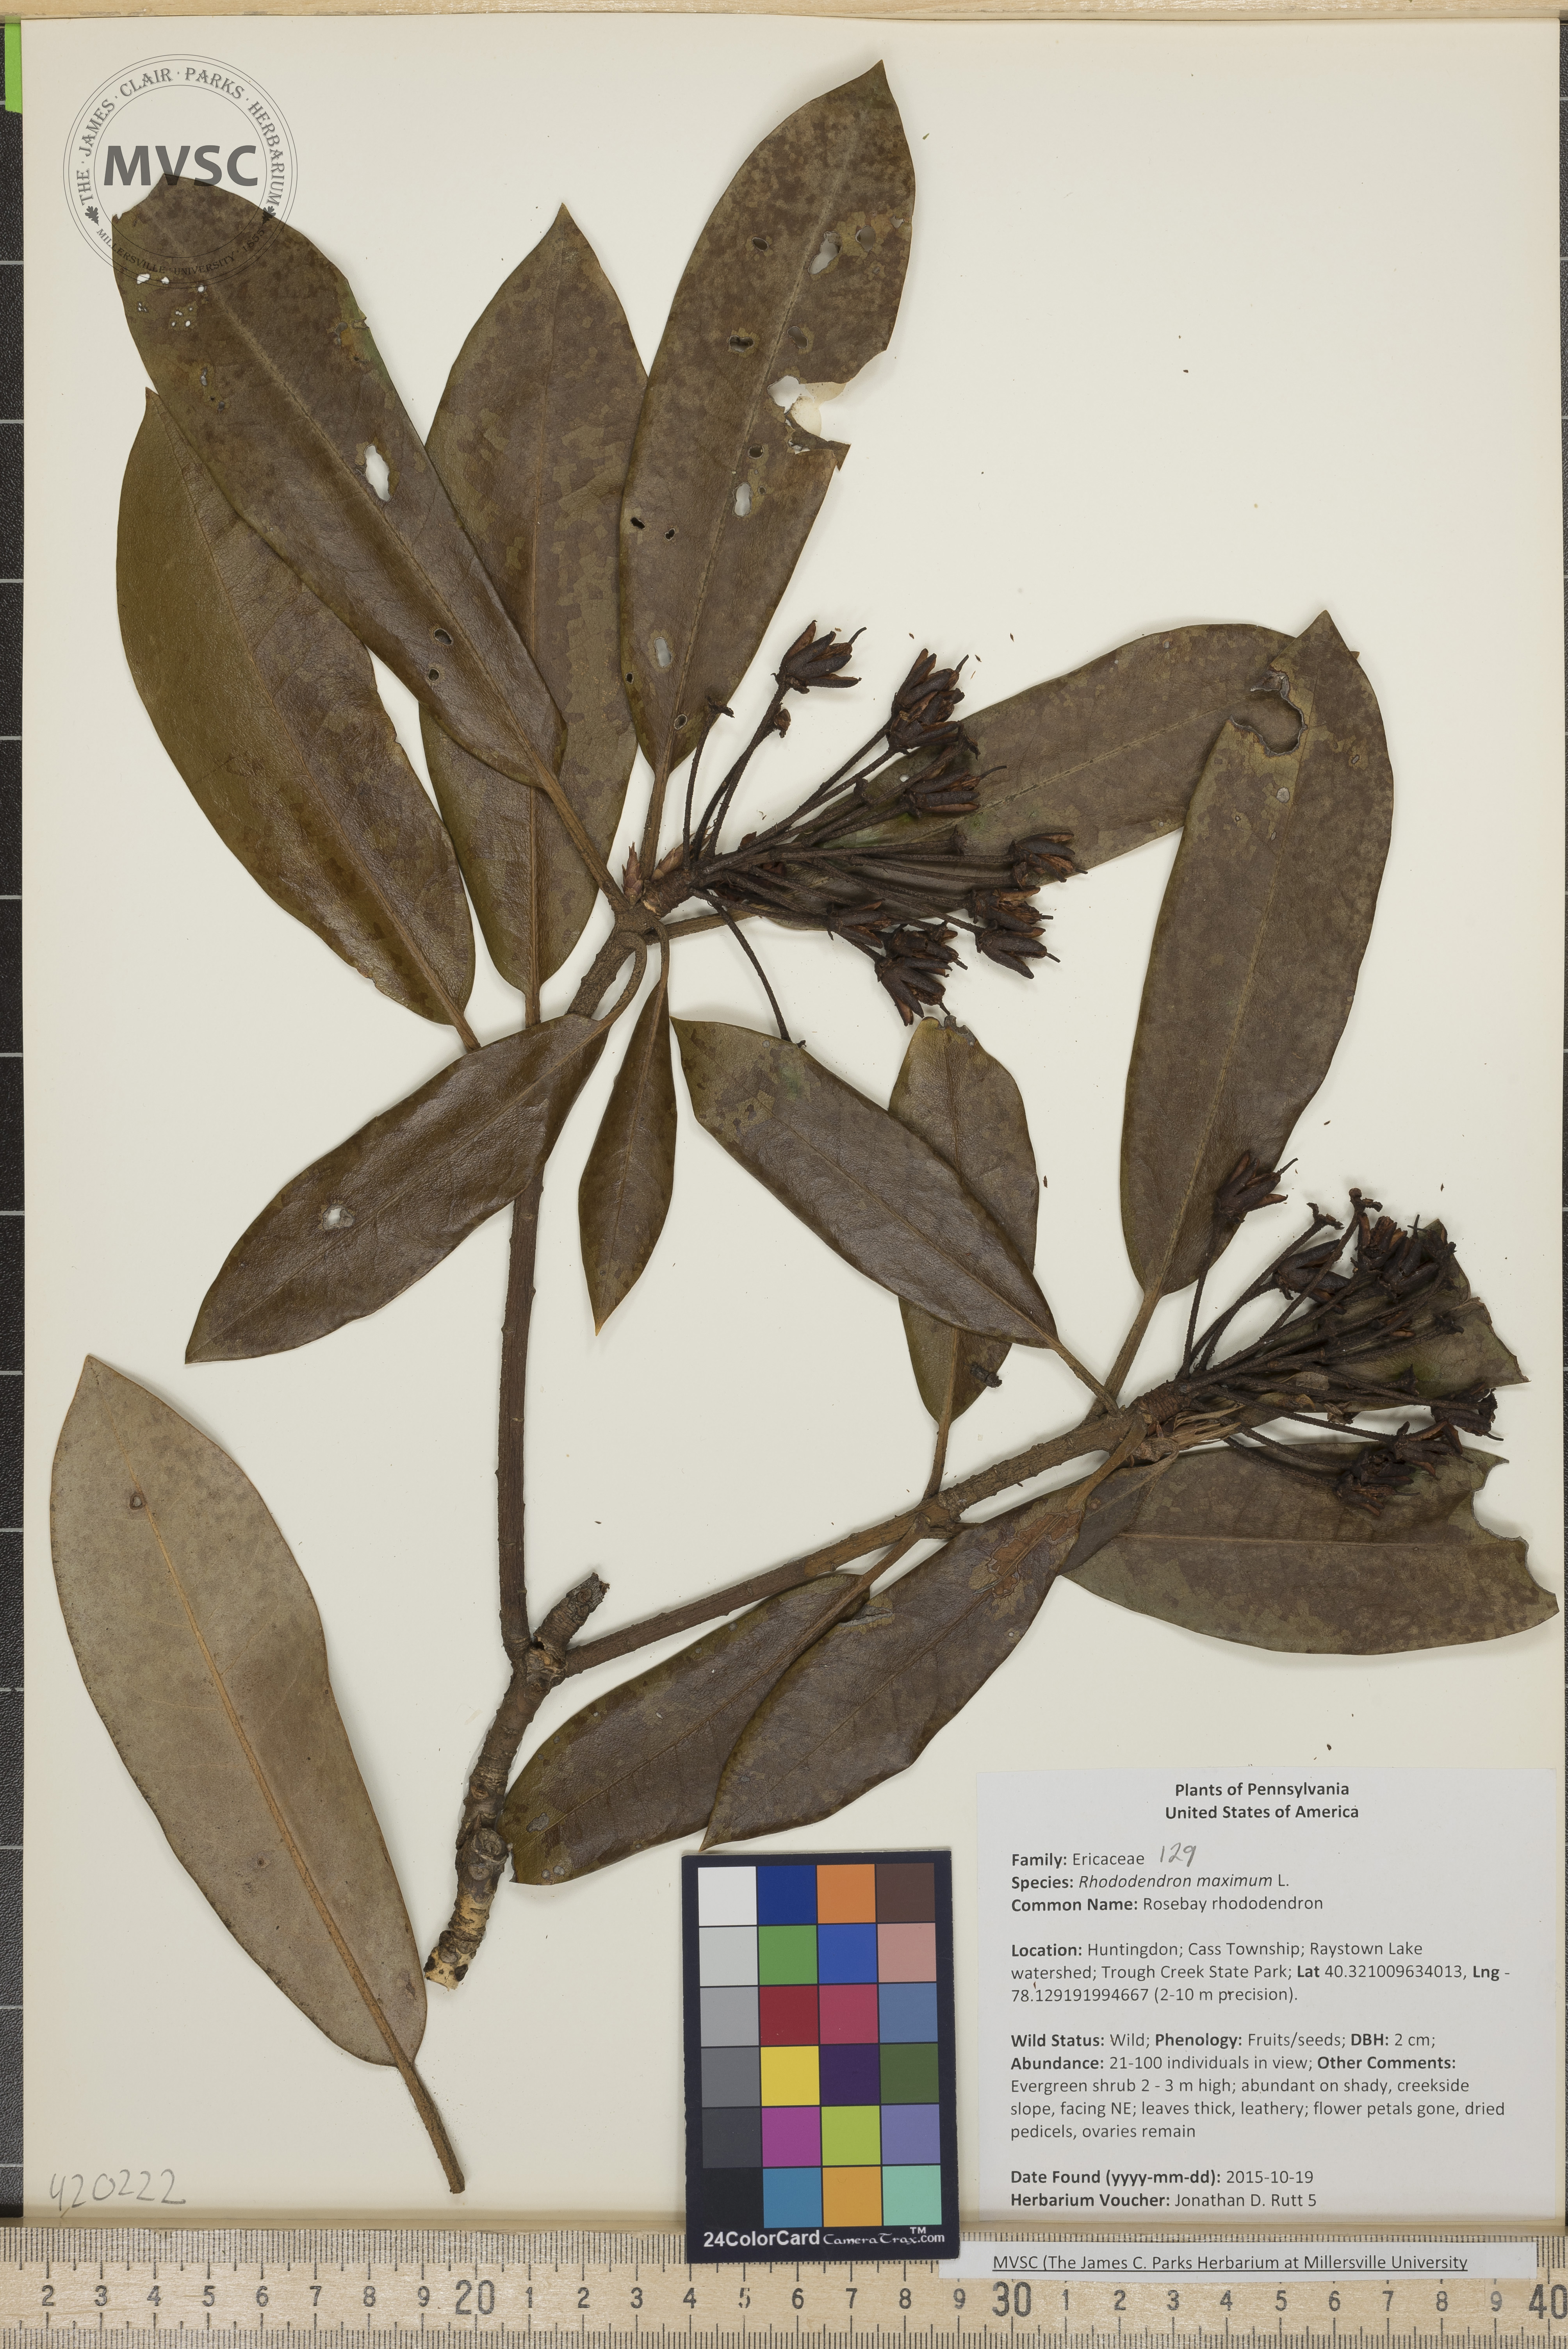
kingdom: Plantae
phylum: Tracheophyta
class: Magnoliopsida
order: Ericales
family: Ericaceae
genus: Rhododendron
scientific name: Rhododendron maximum
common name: Rosebay Rhododendron
